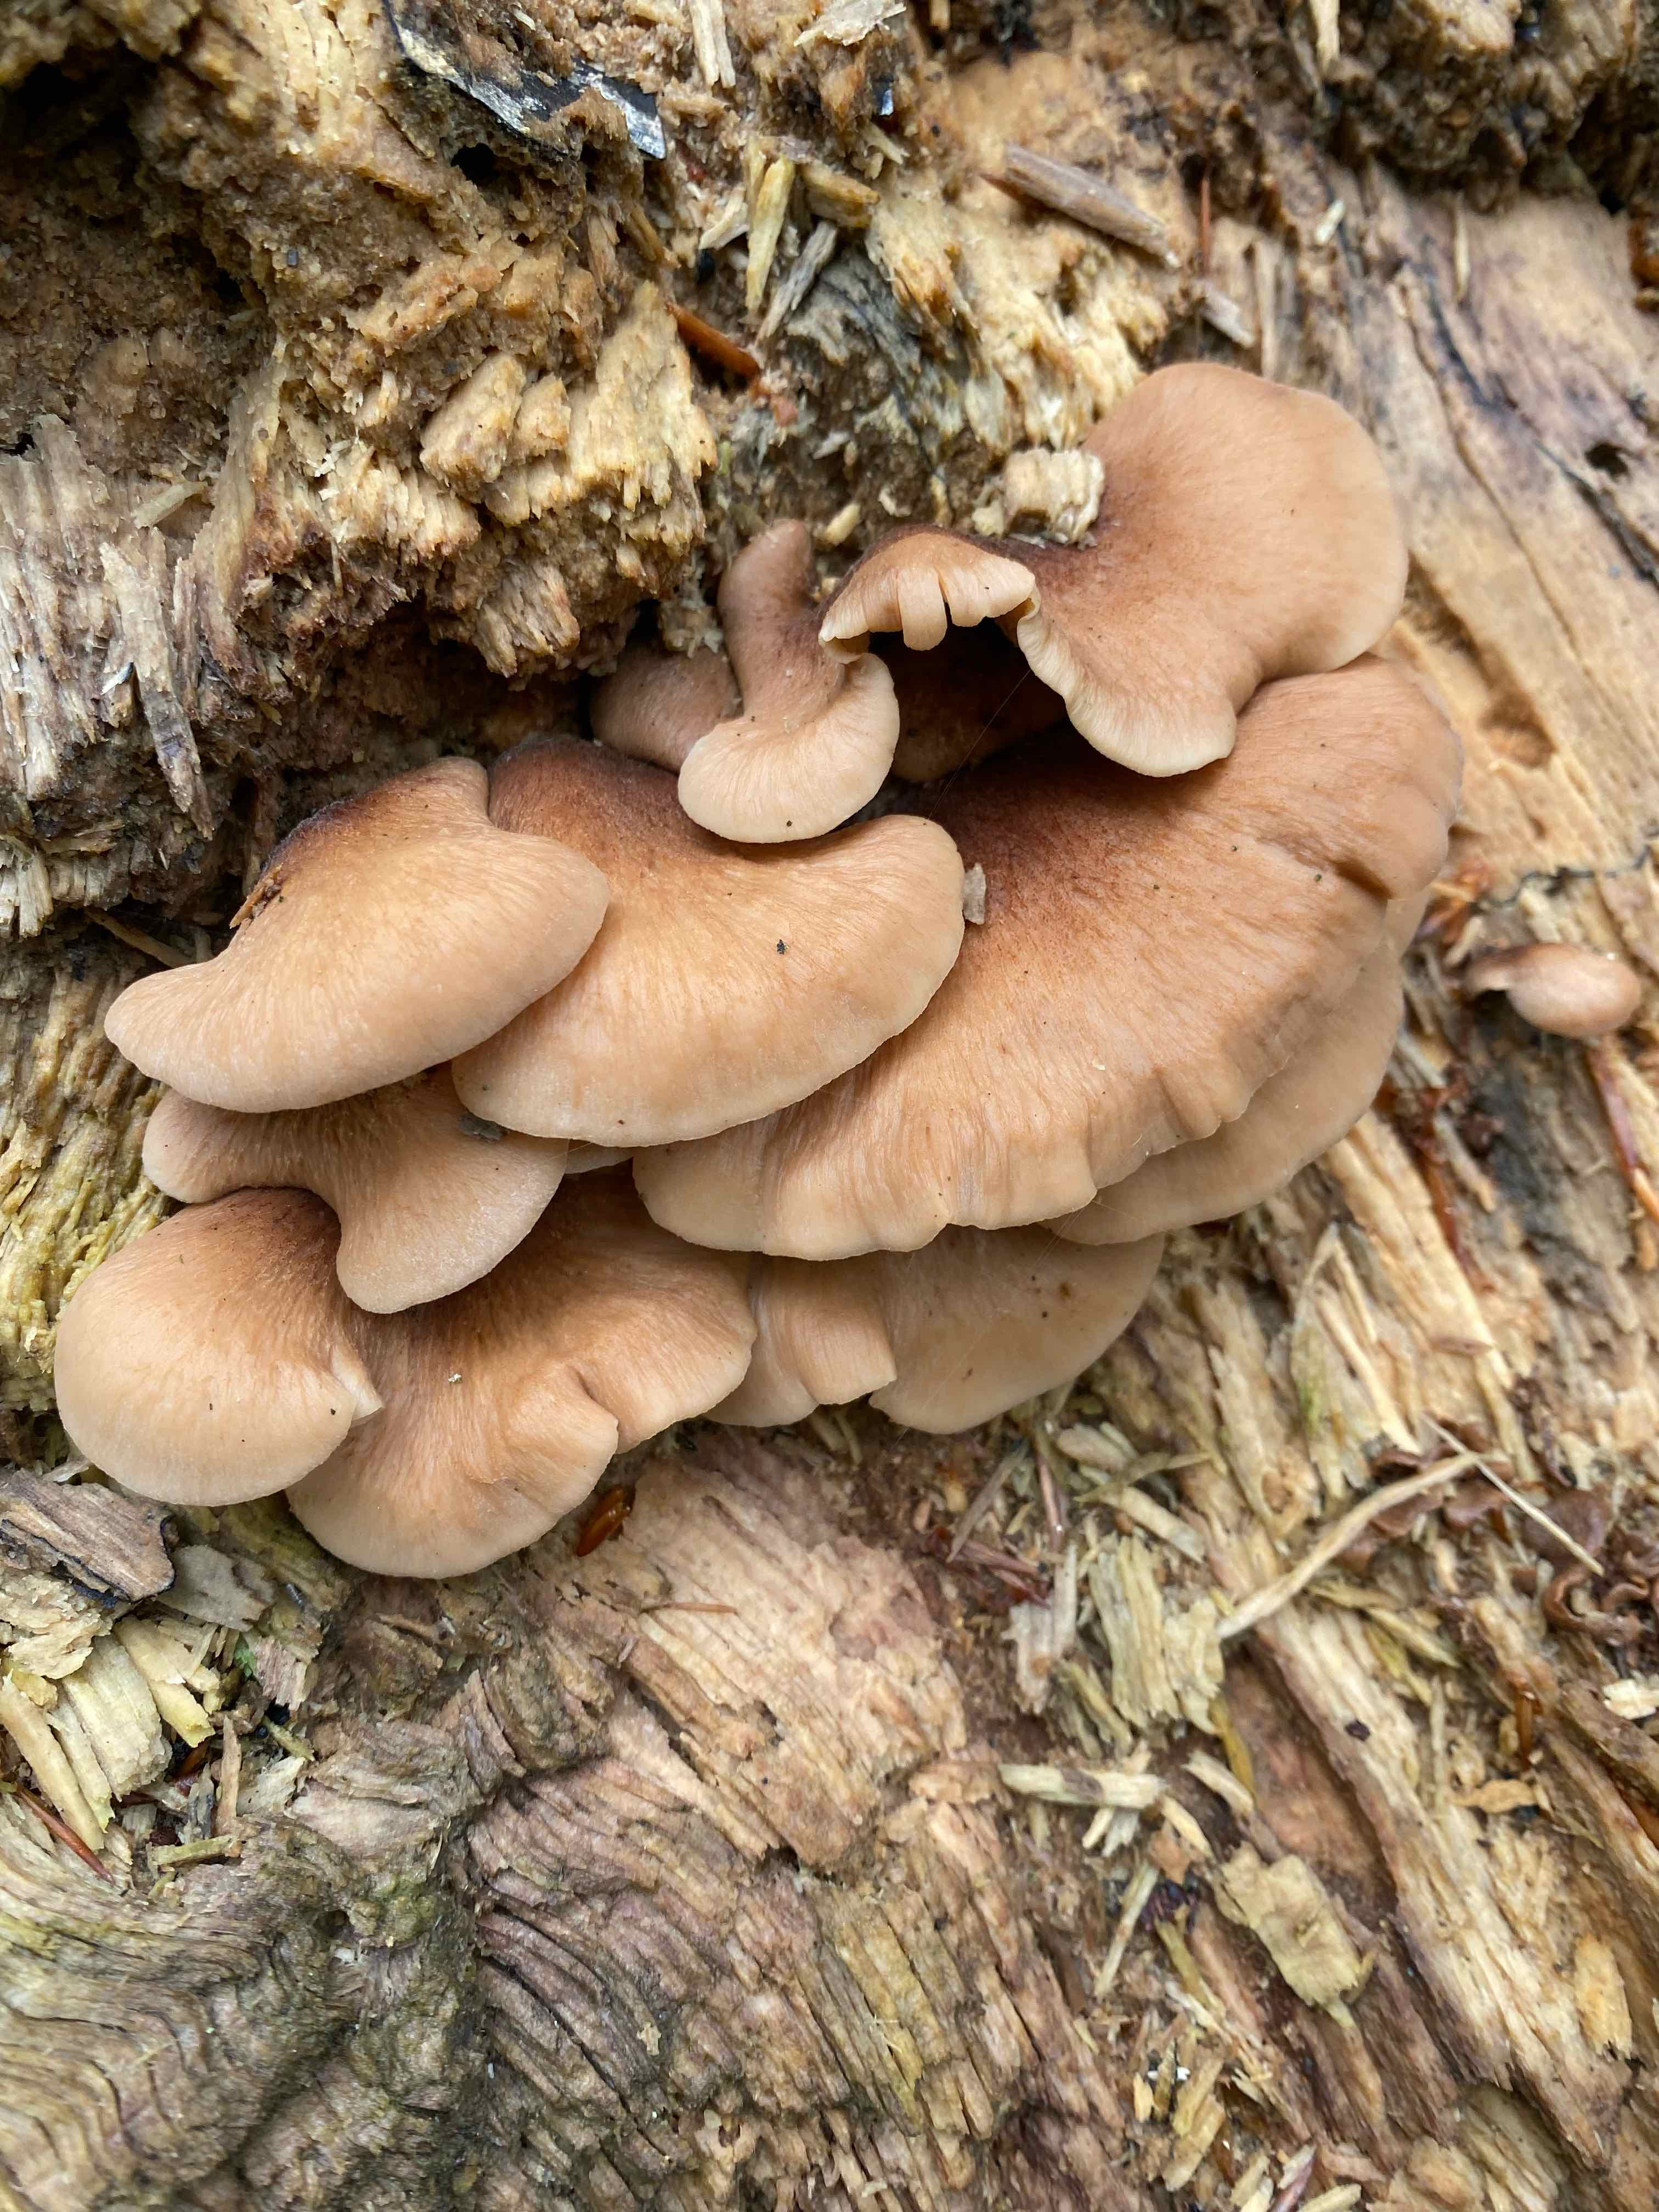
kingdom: Fungi
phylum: Basidiomycota
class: Agaricomycetes
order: Russulales
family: Auriscalpiaceae
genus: Lentinellus
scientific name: Lentinellus ursinus
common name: børstehåret savbladhat
